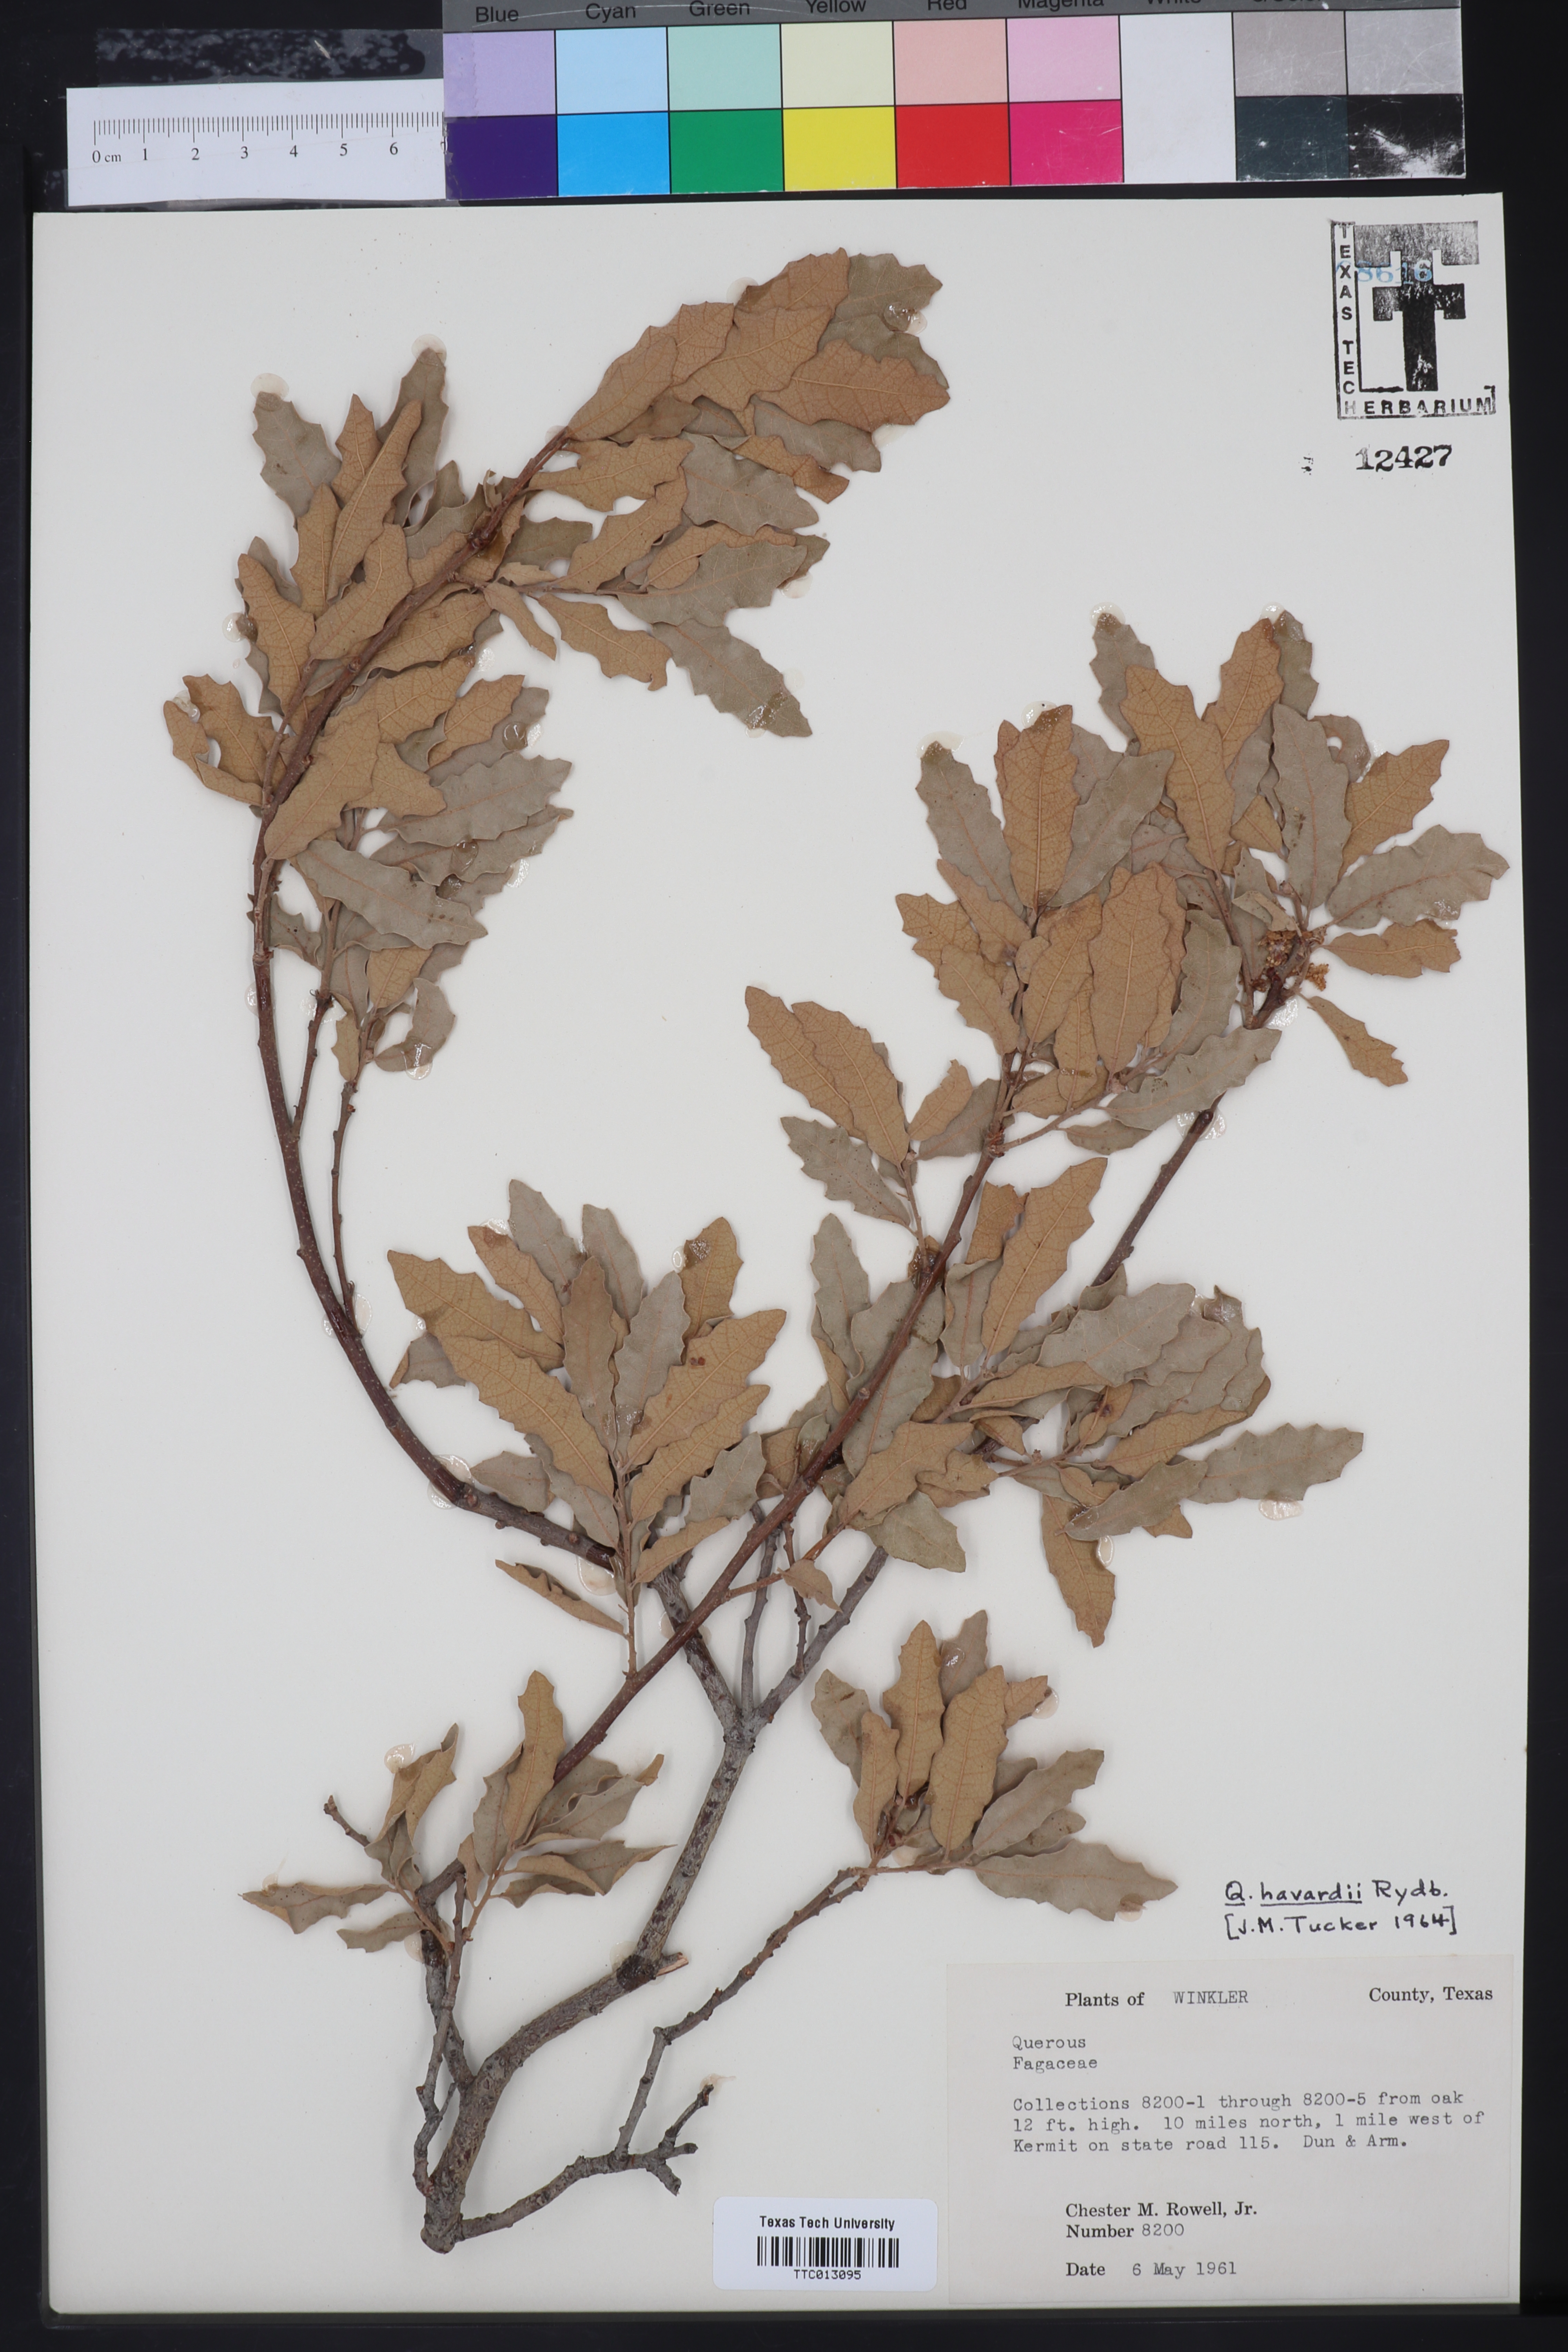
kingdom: Plantae
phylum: Tracheophyta
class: Magnoliopsida
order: Fagales
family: Fagaceae
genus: Quercus
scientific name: Quercus havardii
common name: Shinnery oak
